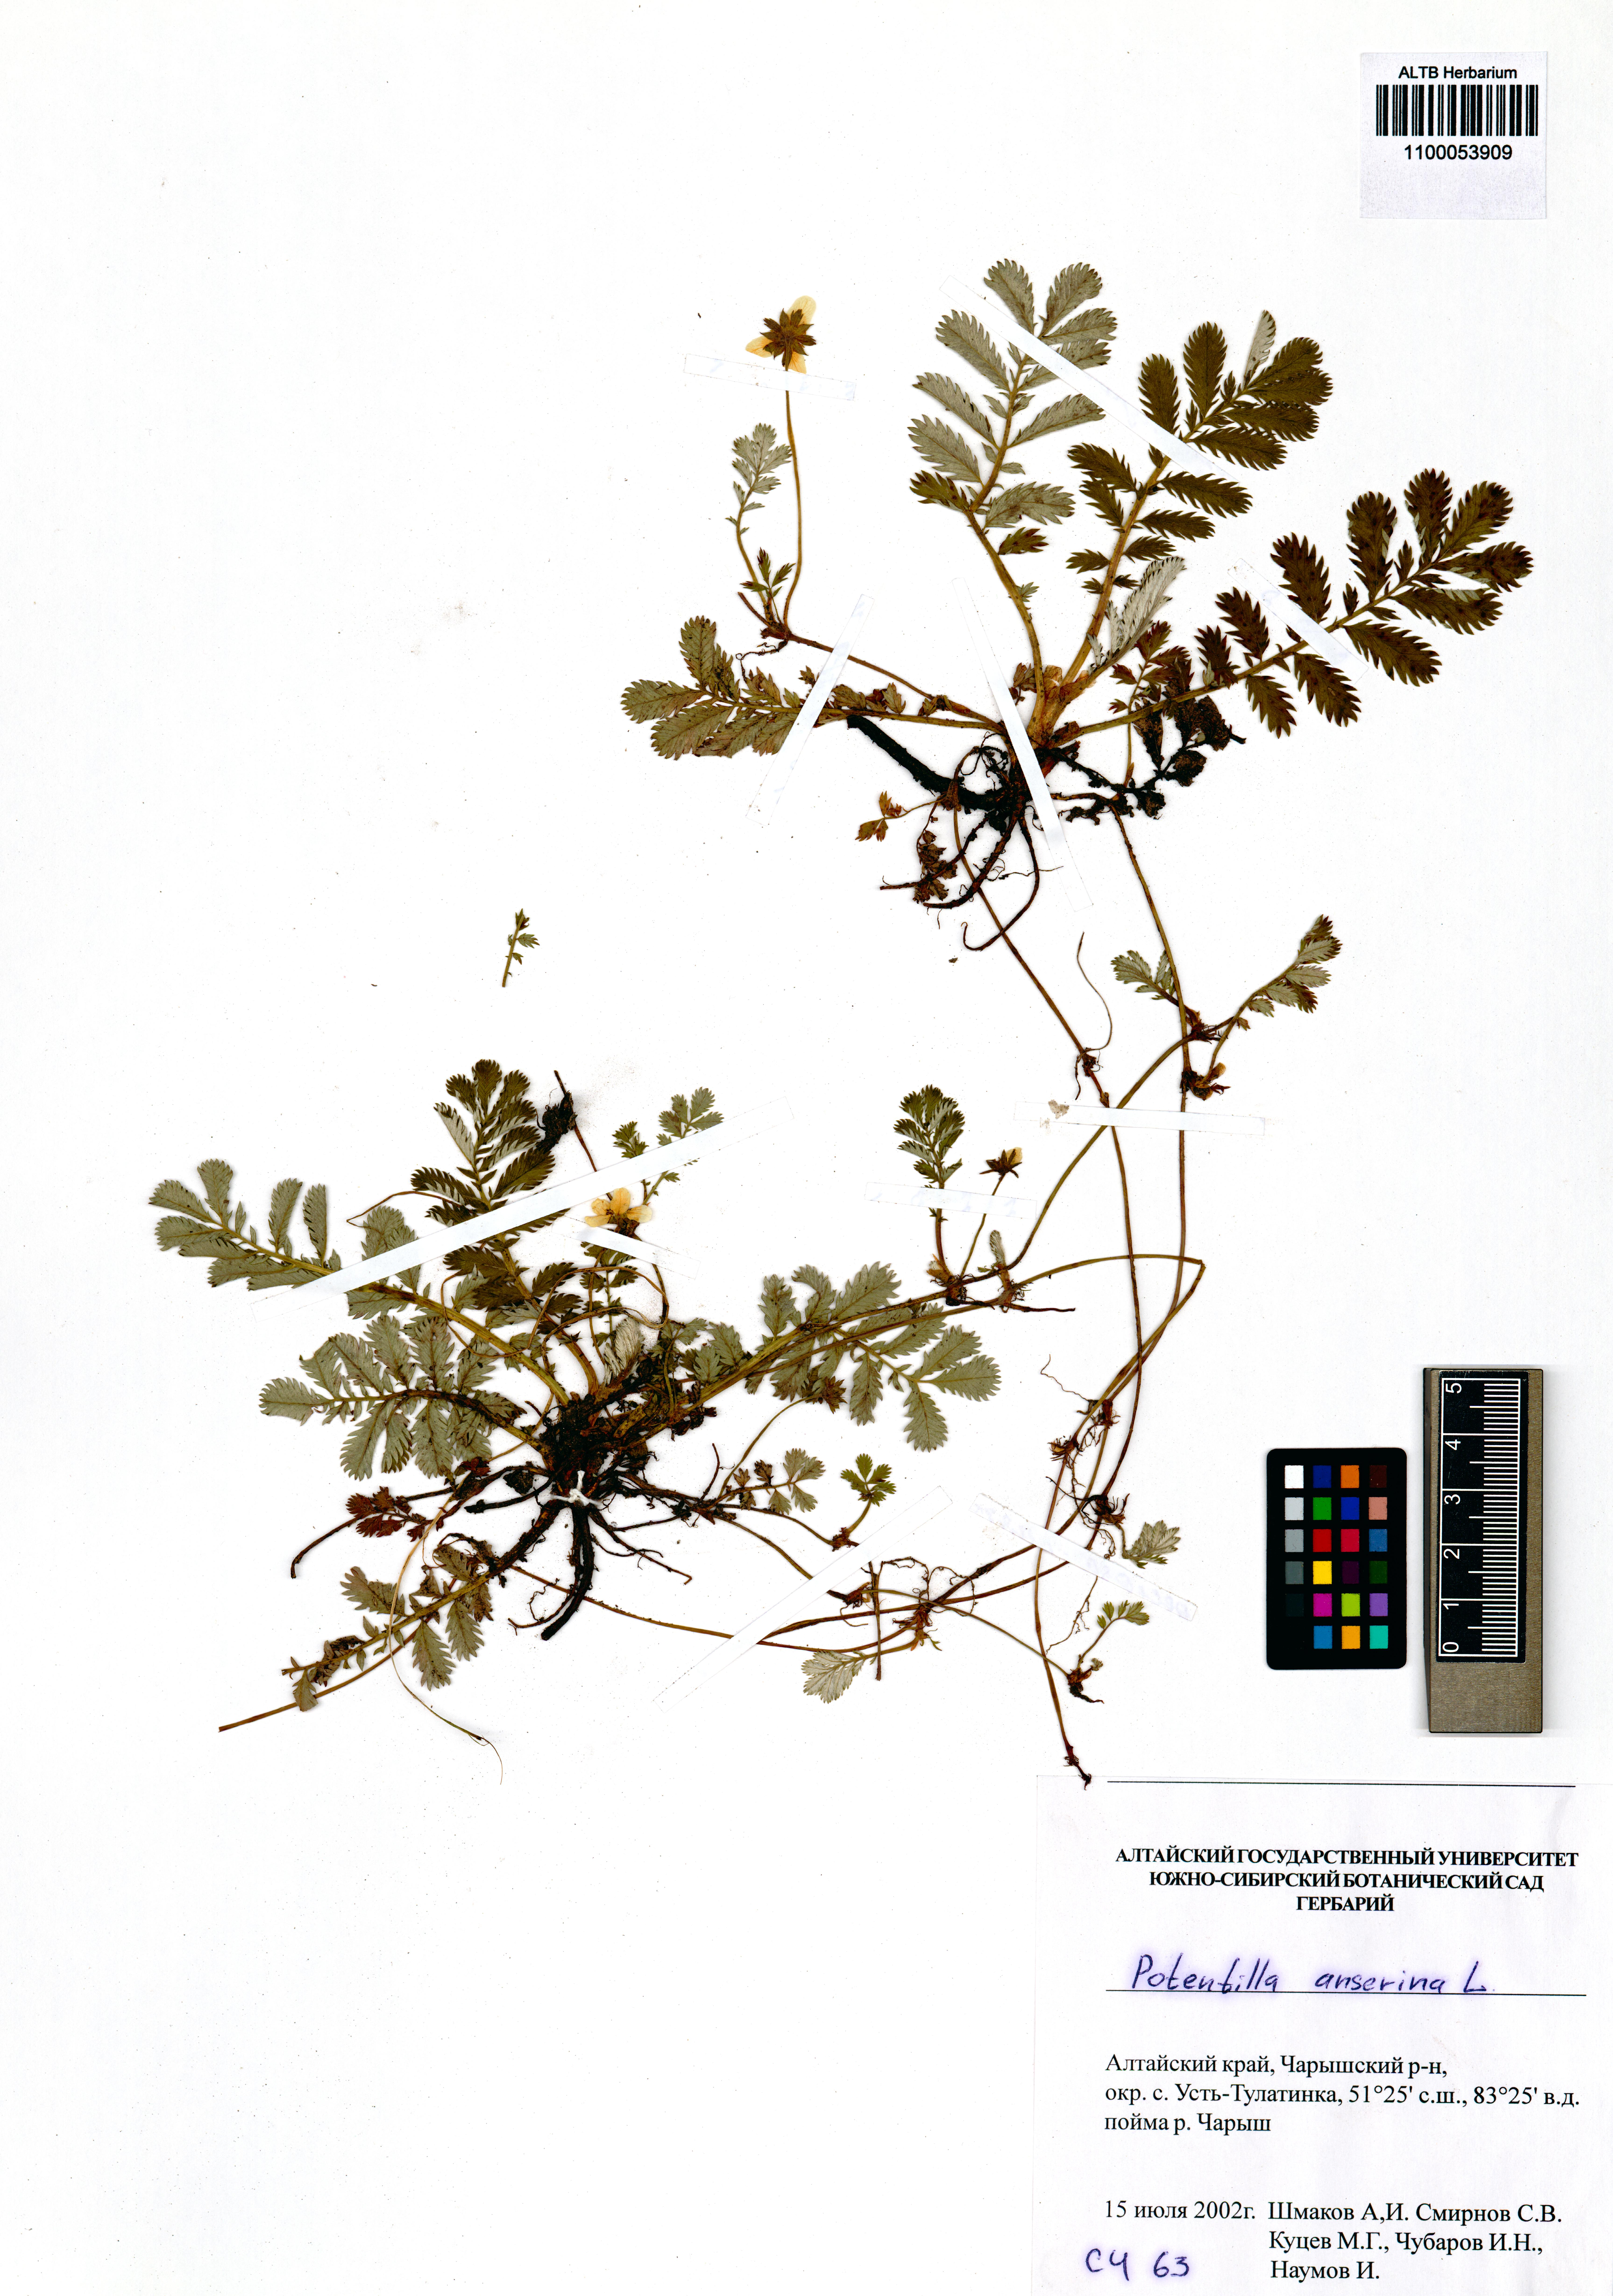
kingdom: Plantae
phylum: Tracheophyta
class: Magnoliopsida
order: Rosales
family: Rosaceae
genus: Argentina
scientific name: Argentina anserina
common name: Common silverweed
